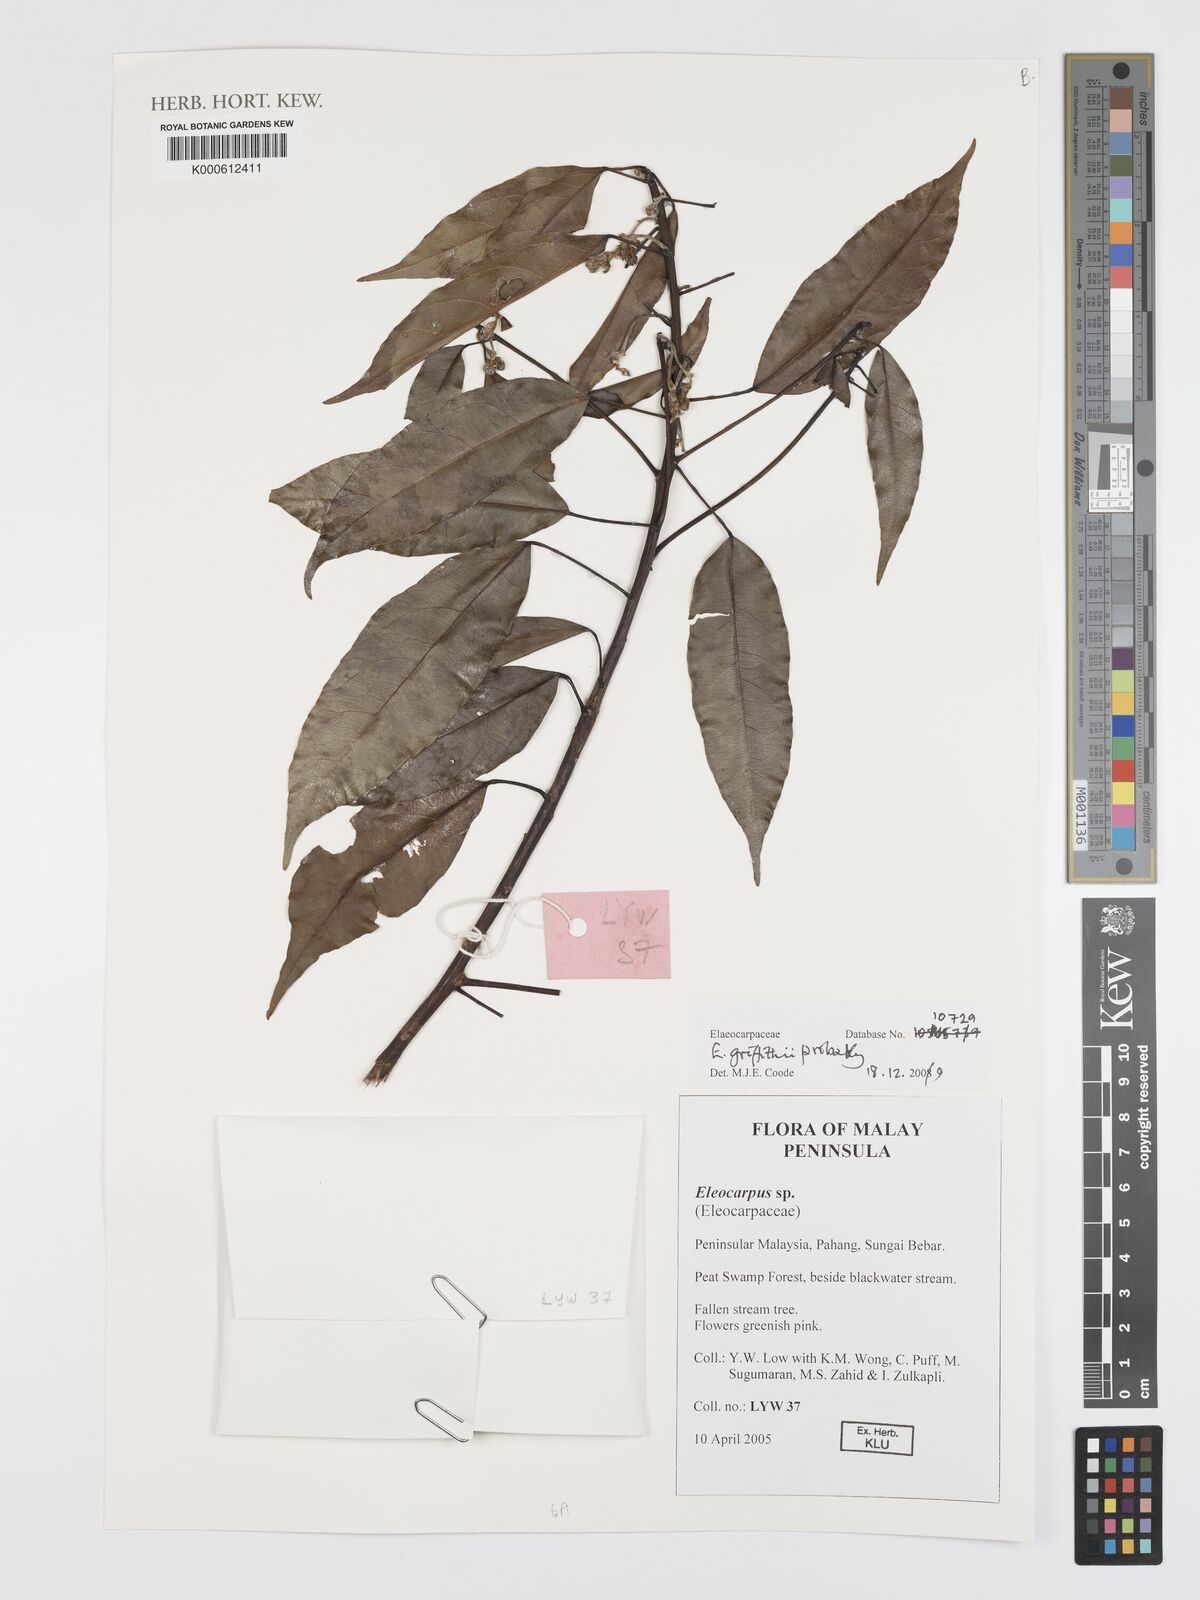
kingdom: Plantae
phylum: Tracheophyta
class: Magnoliopsida
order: Oxalidales
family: Elaeocarpaceae
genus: Elaeocarpus
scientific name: Elaeocarpus
